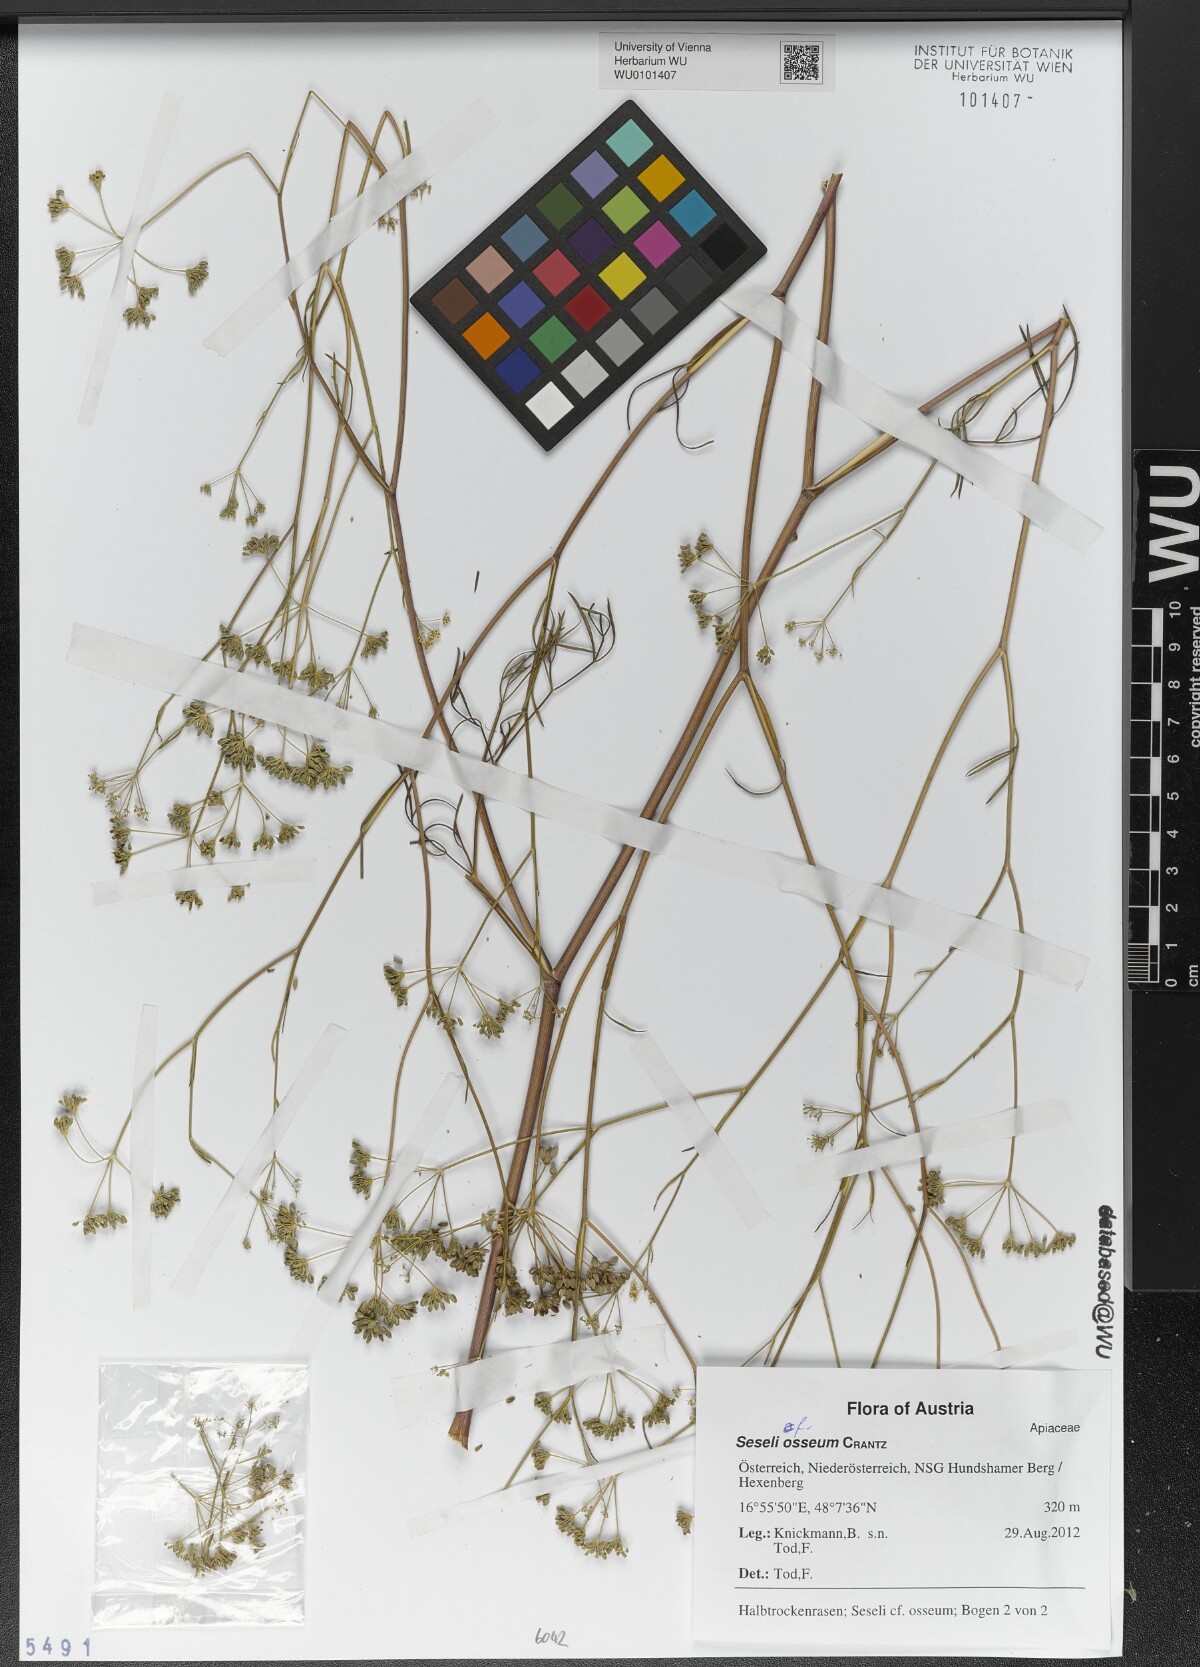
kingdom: Plantae
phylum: Tracheophyta
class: Magnoliopsida
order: Apiales
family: Apiaceae
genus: Seseli
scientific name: Seseli osseum
